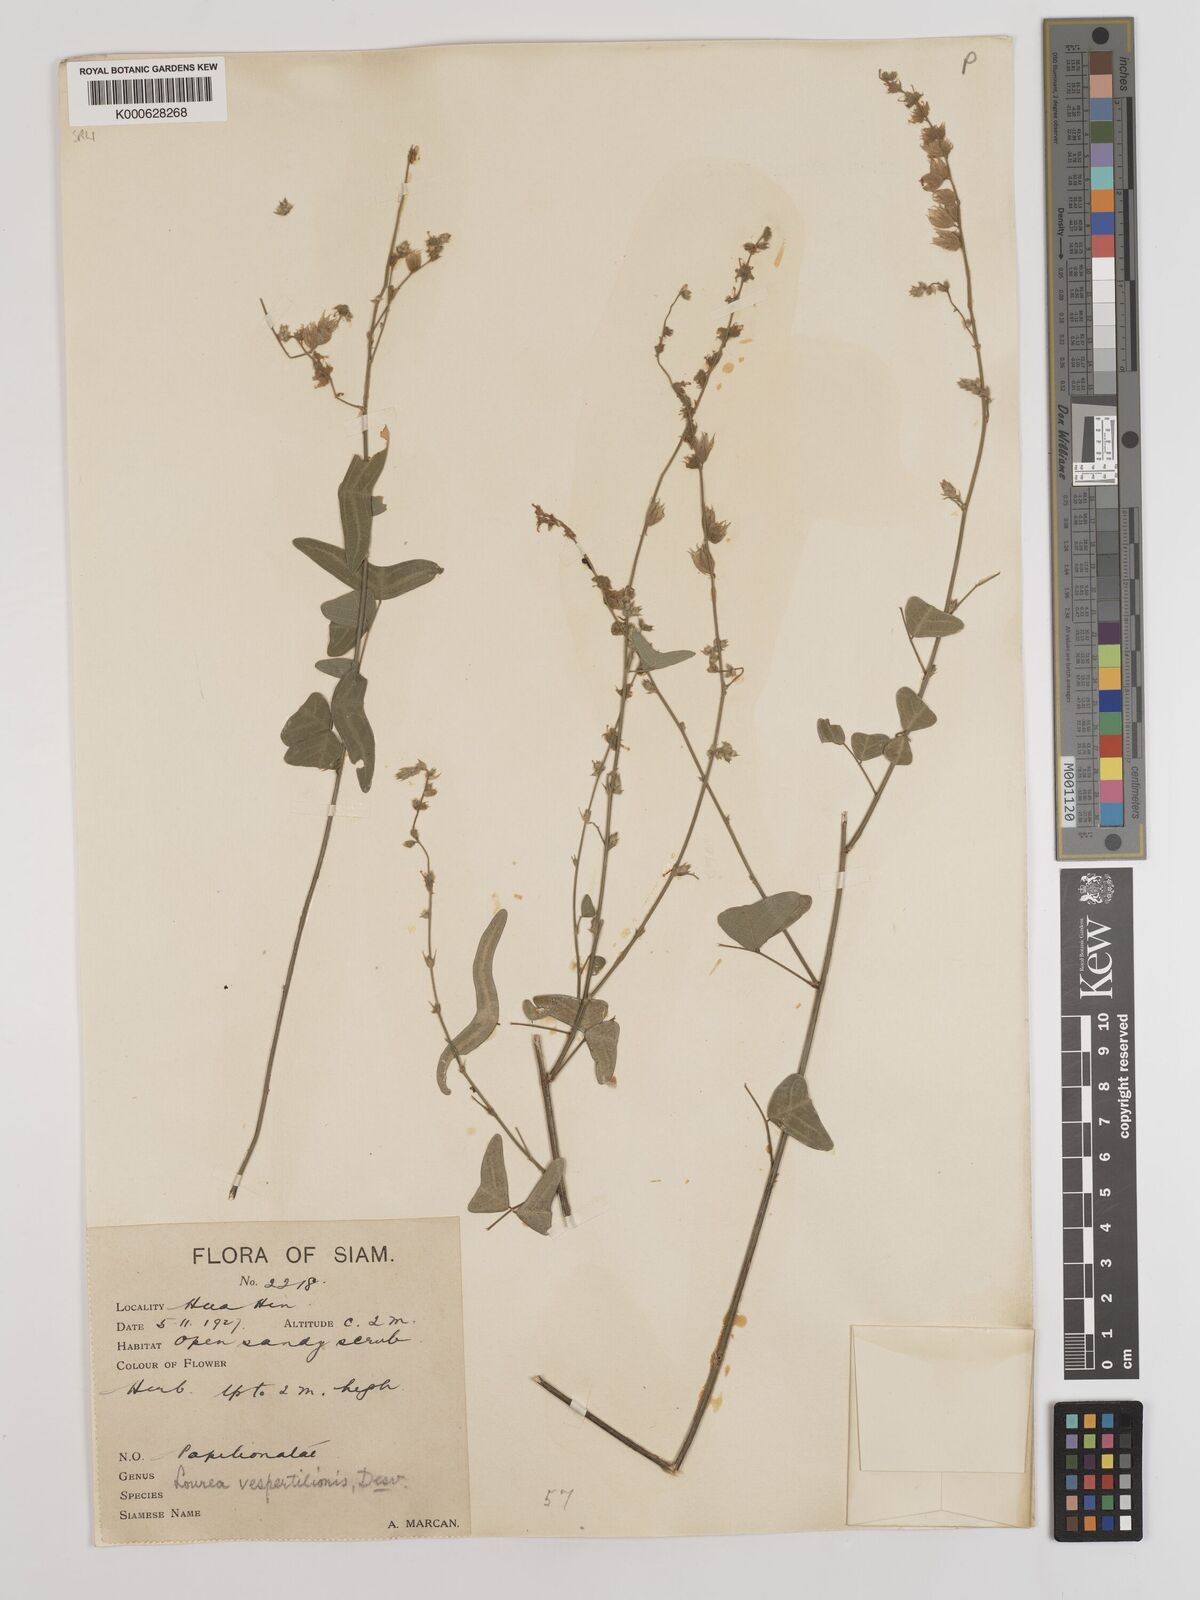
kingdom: Plantae
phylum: Tracheophyta
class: Magnoliopsida
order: Fabales
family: Fabaceae
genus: Christia
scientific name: Christia vespertilionis
